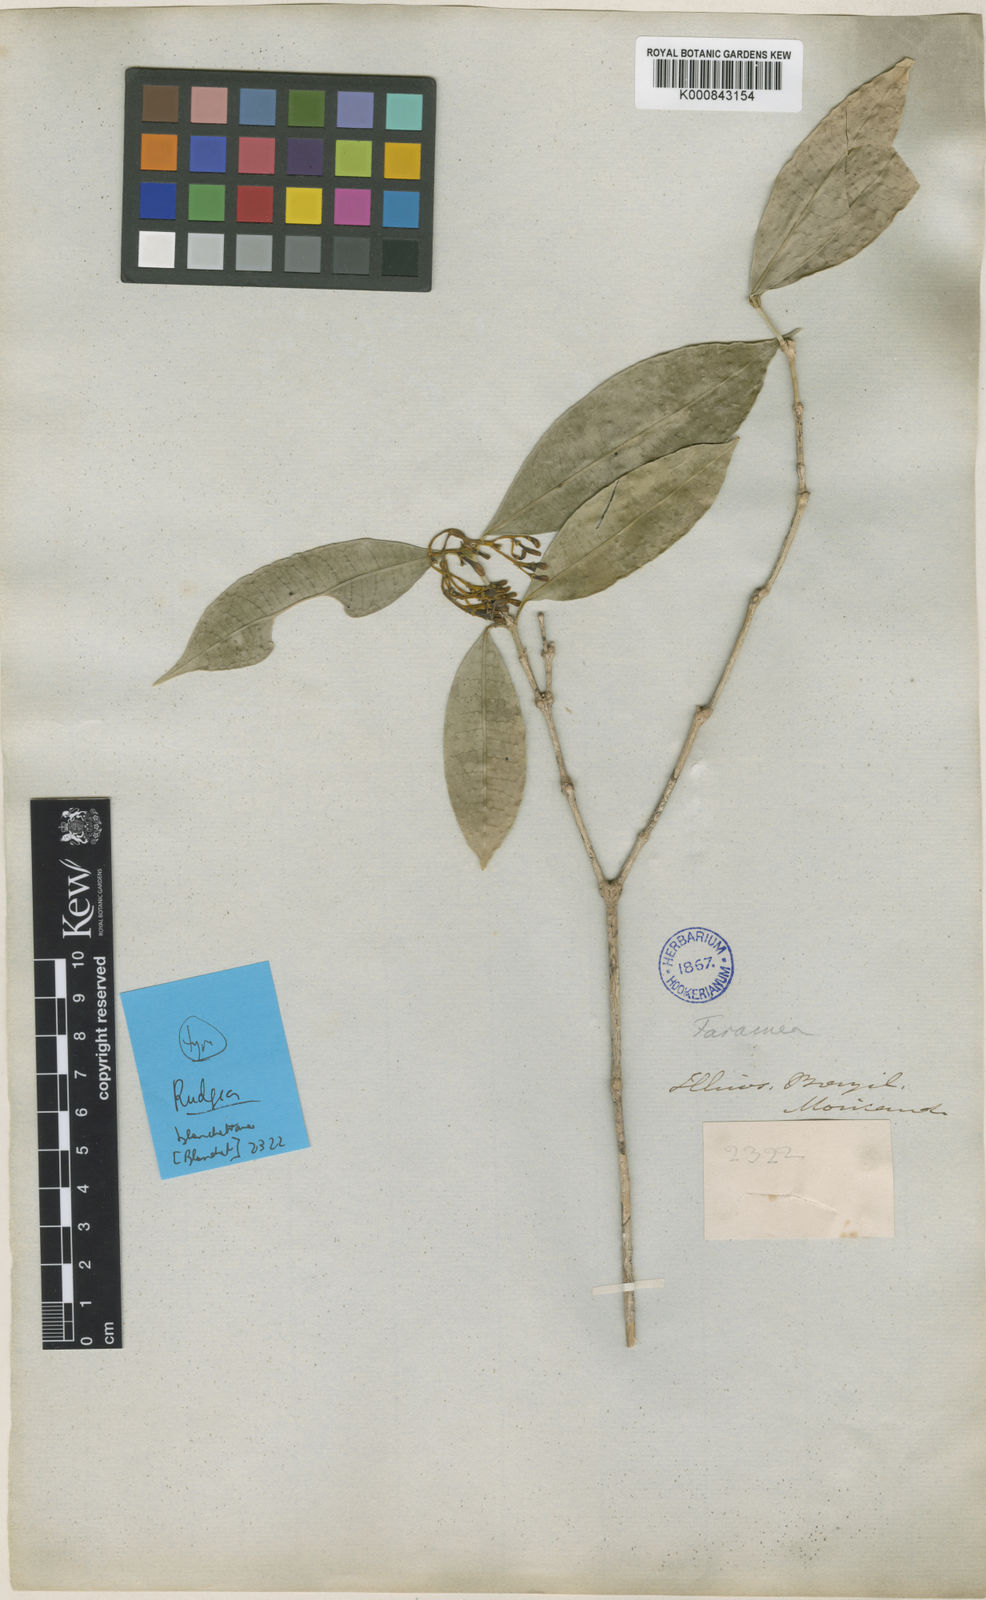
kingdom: Plantae
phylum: Tracheophyta
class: Magnoliopsida
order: Gentianales
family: Rubiaceae
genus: Rudgea
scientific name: Rudgea
